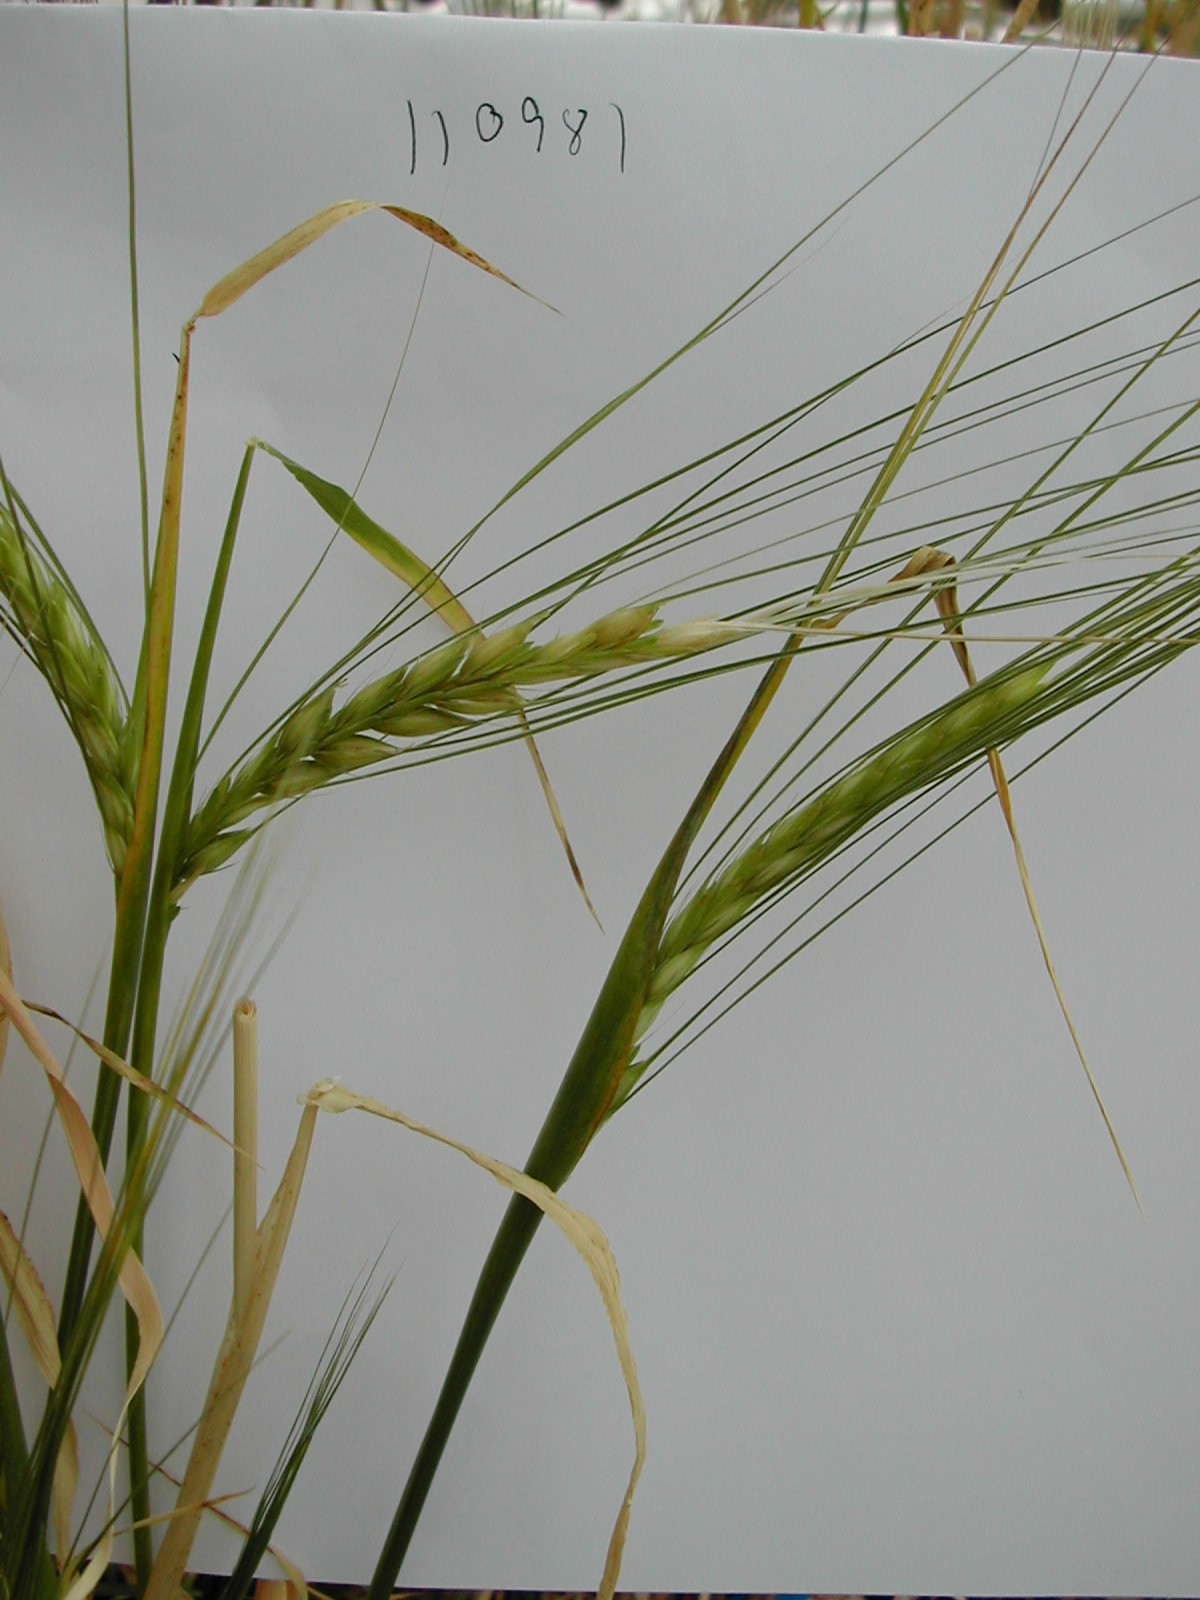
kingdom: Plantae
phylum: Tracheophyta
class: Liliopsida
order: Poales
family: Poaceae
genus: Hordeum
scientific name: Hordeum vulgare
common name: Common barley
